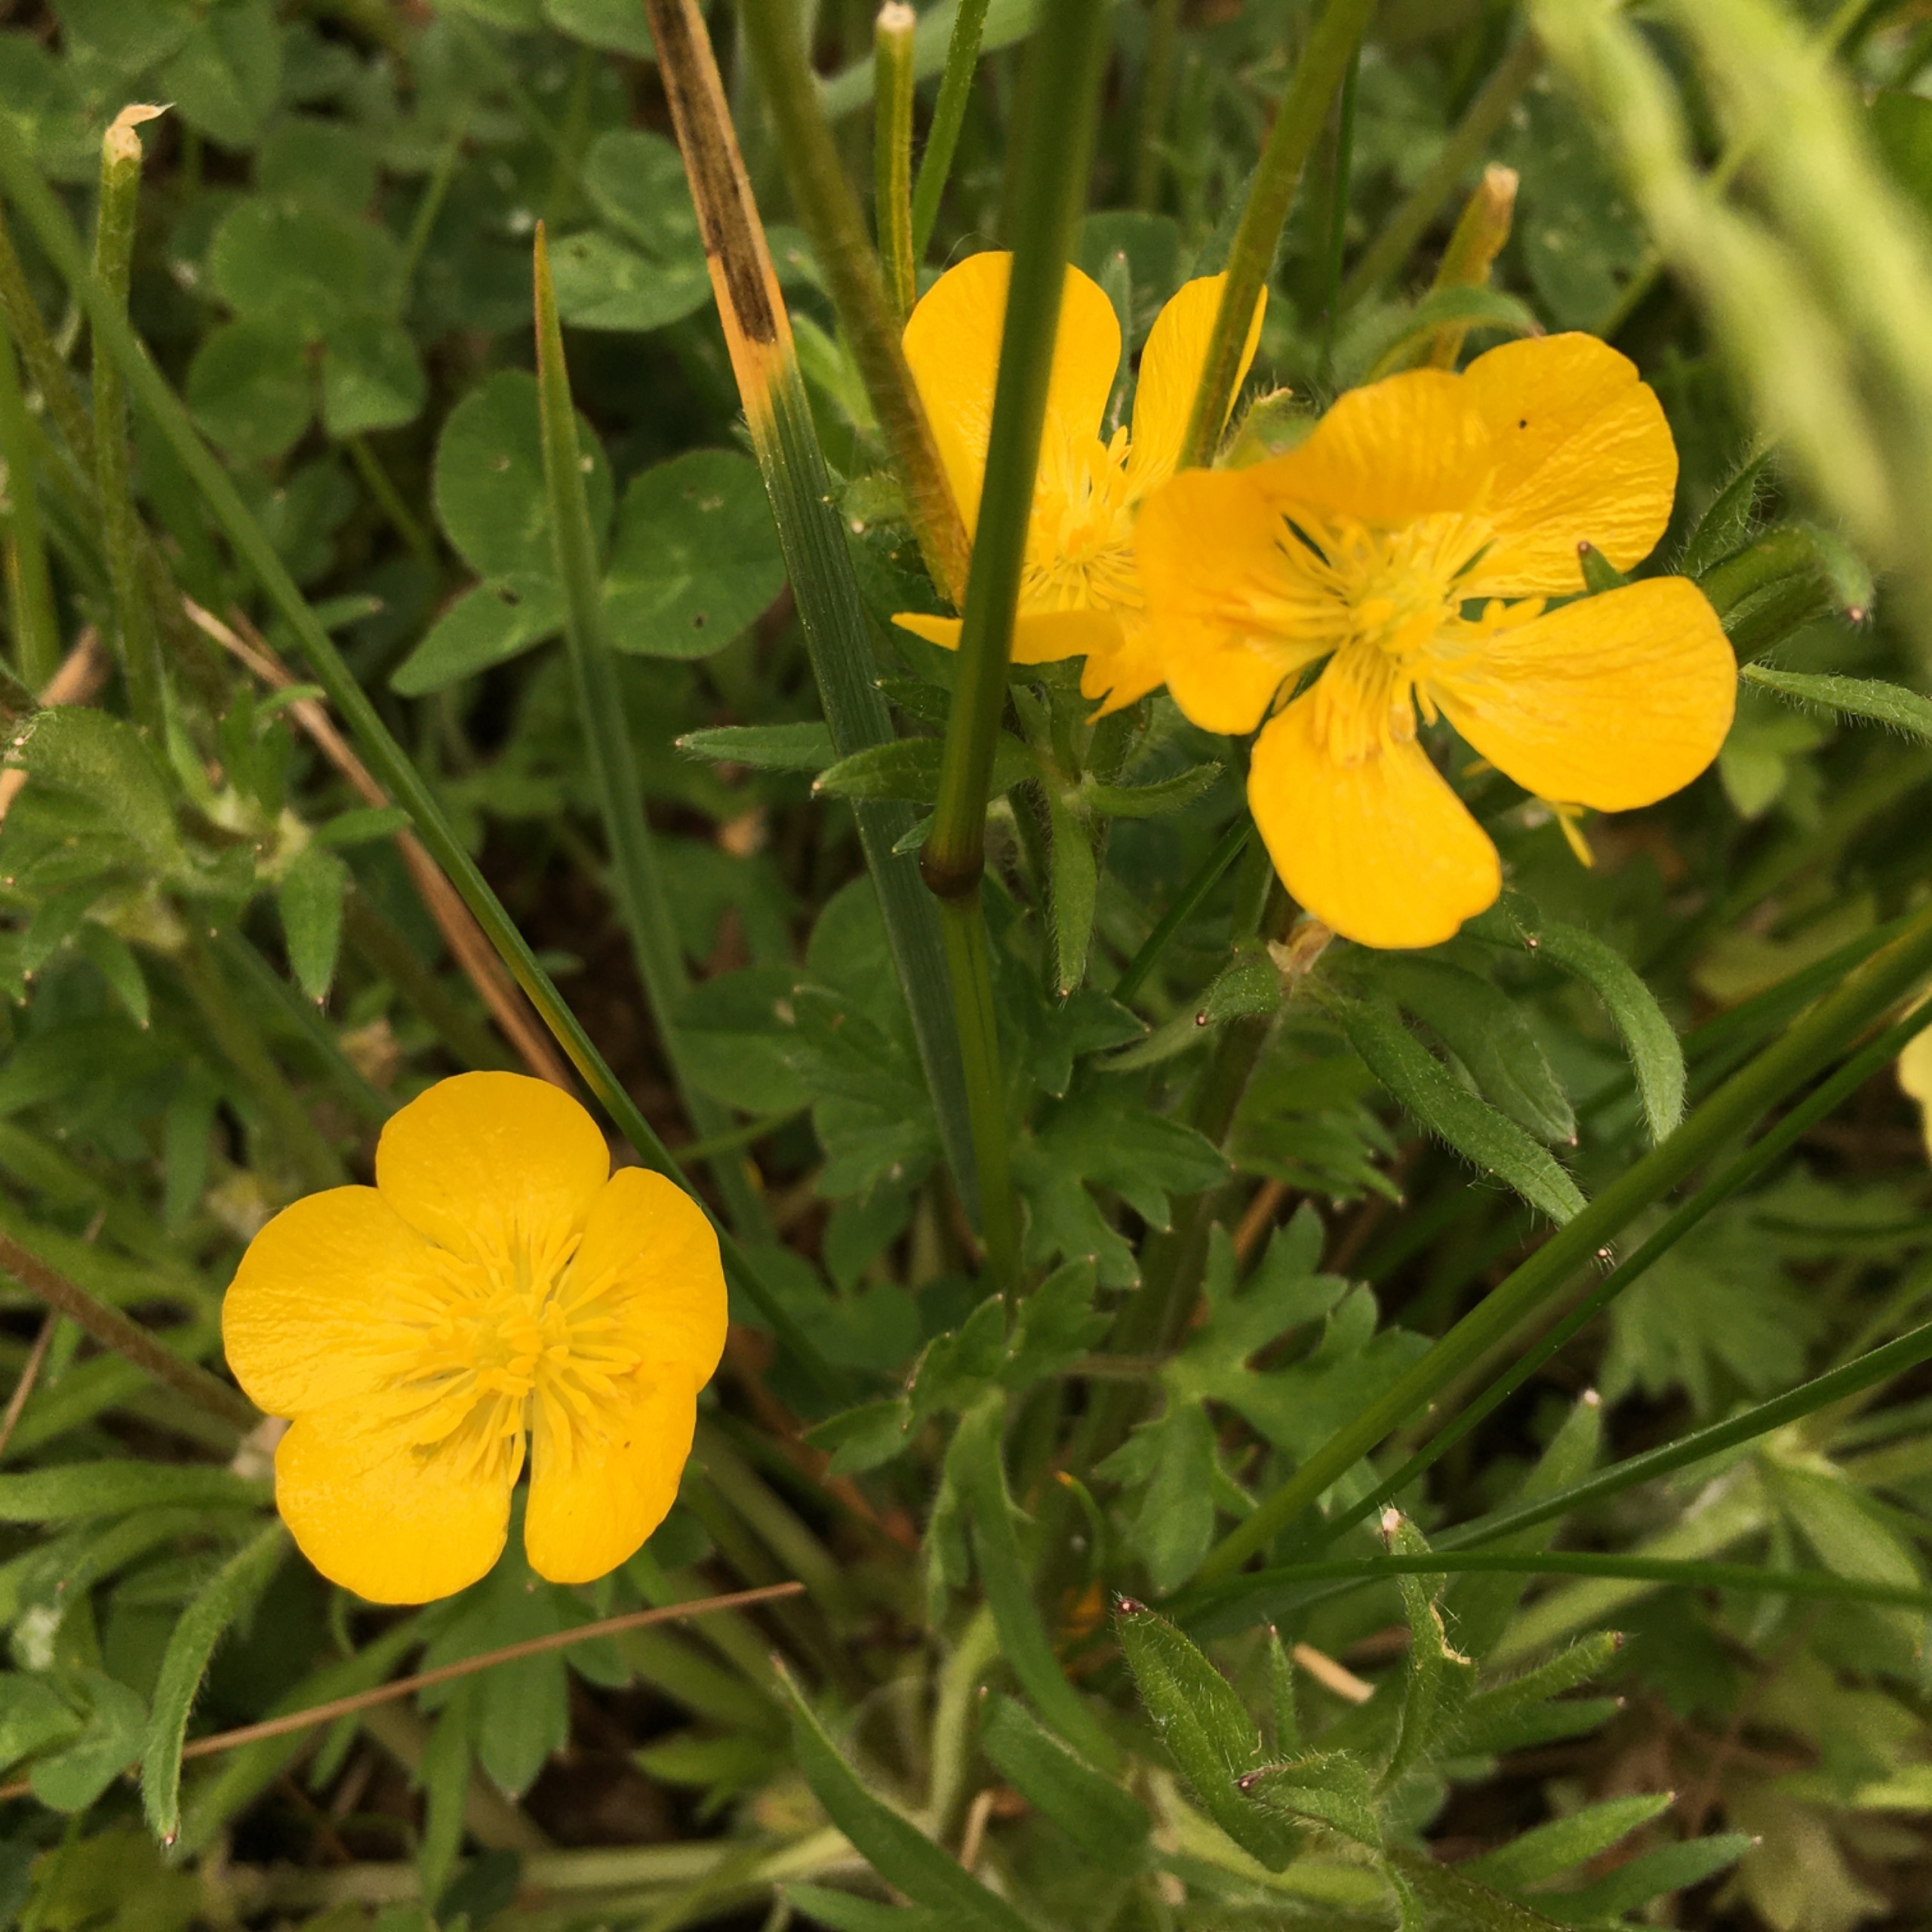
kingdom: Plantae
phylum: Tracheophyta
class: Magnoliopsida
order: Ranunculales
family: Ranunculaceae
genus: Ranunculus
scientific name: Ranunculus repens
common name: Lav ranunkel
